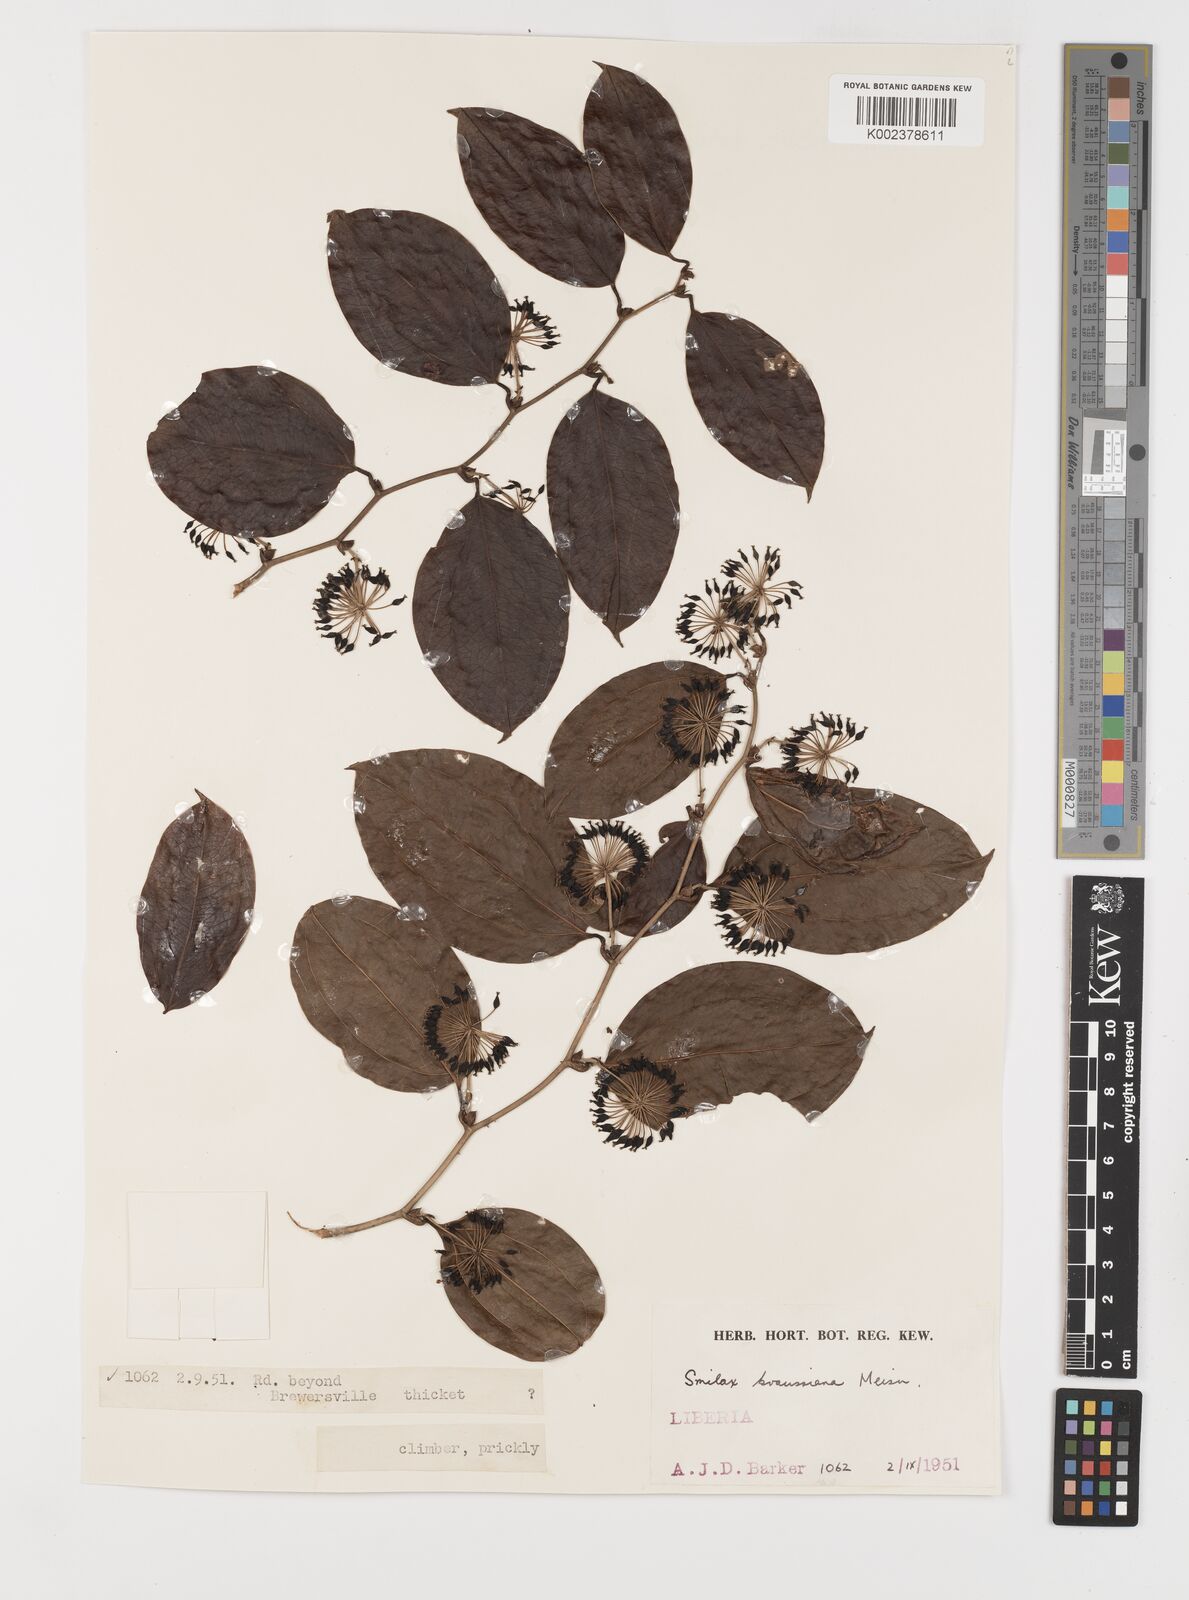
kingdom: Plantae
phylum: Tracheophyta
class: Liliopsida
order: Liliales
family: Smilacaceae
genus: Smilax
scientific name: Smilax anceps
